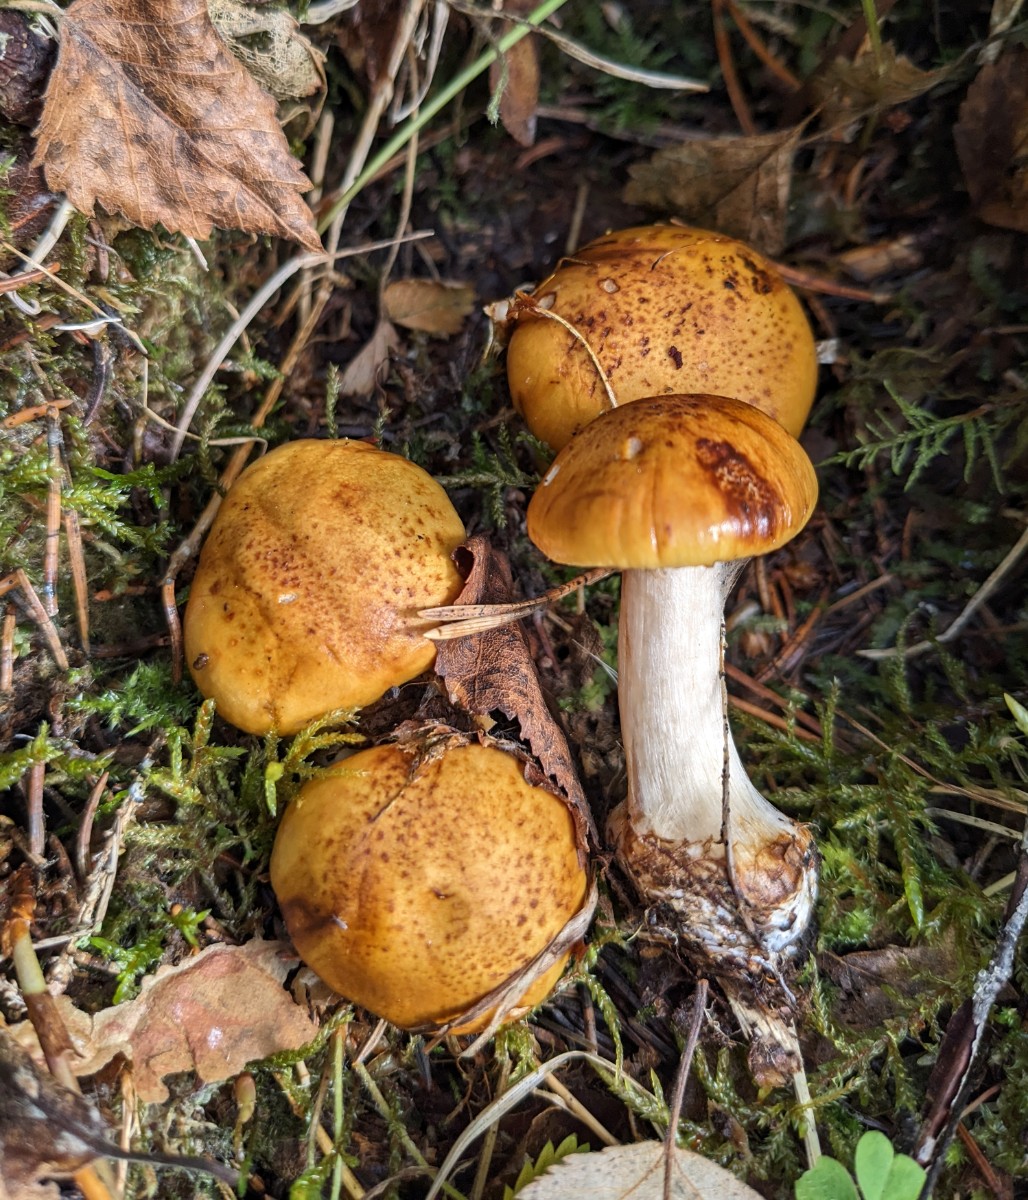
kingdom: Fungi
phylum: Basidiomycota
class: Agaricomycetes
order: Agaricales
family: Cortinariaceae
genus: Calonarius
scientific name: Calonarius piceae
